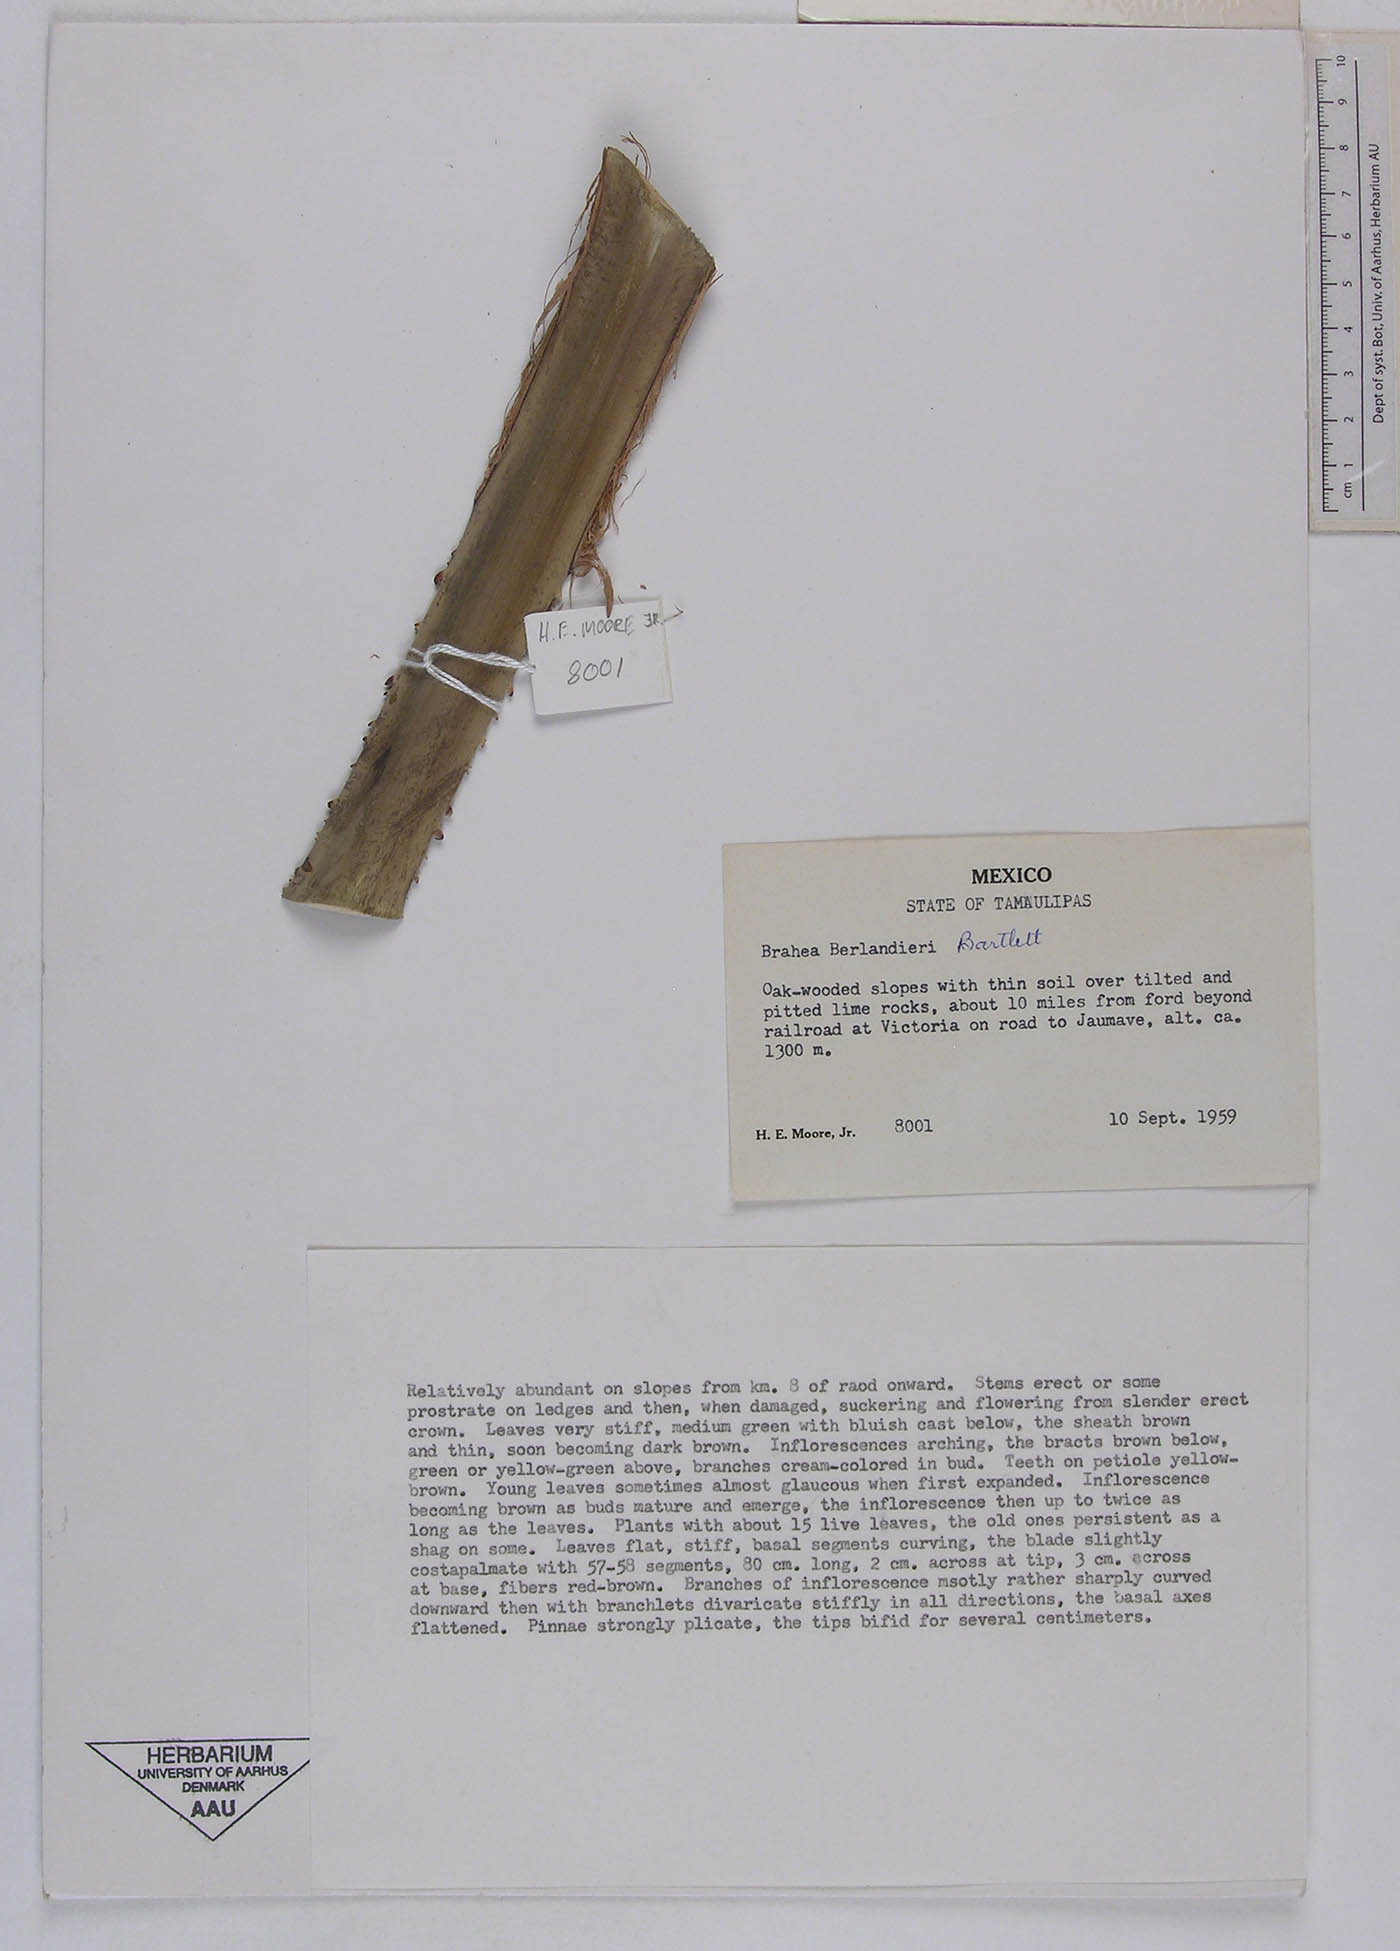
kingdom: Plantae
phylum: Tracheophyta
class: Liliopsida
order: Arecales
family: Arecaceae
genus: Brahea
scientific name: Brahea dulcis
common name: Apak palm
